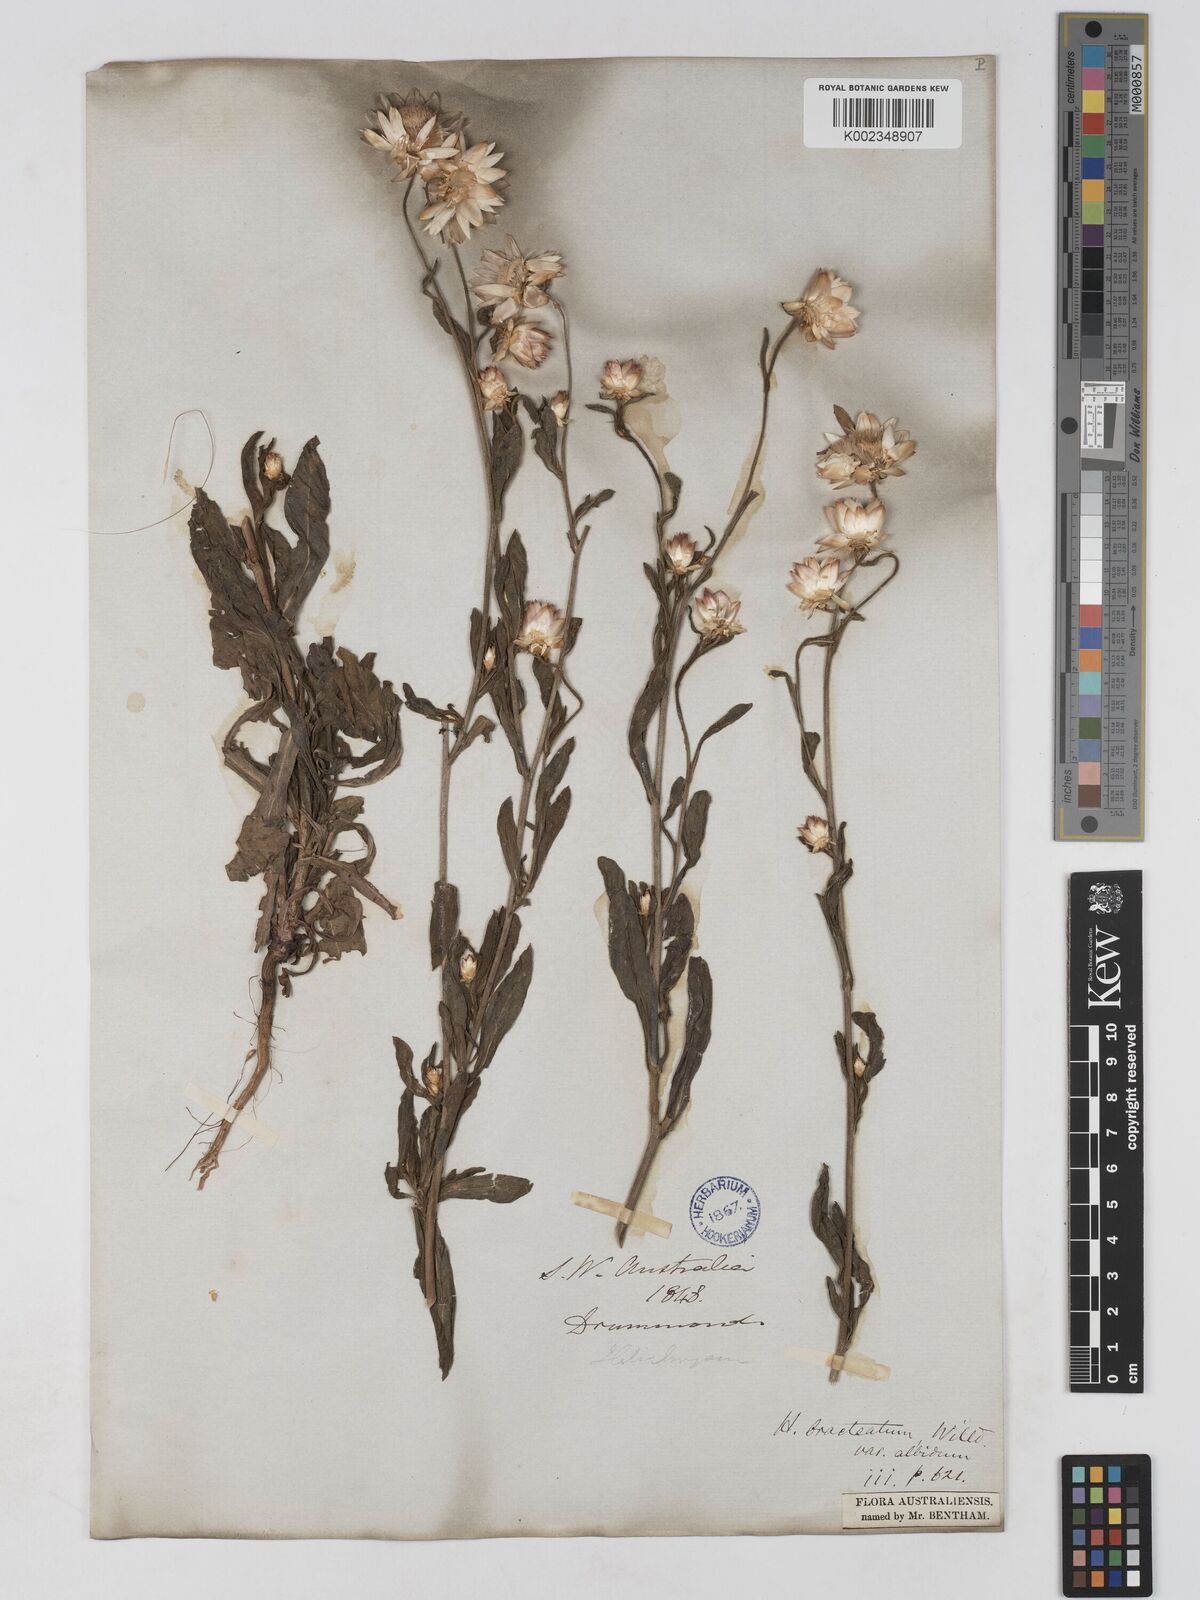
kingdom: Plantae
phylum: Tracheophyta
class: Magnoliopsida
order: Asterales
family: Asteraceae
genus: Xerochrysum
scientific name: Xerochrysum bracteatum
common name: Bracted strawflower
